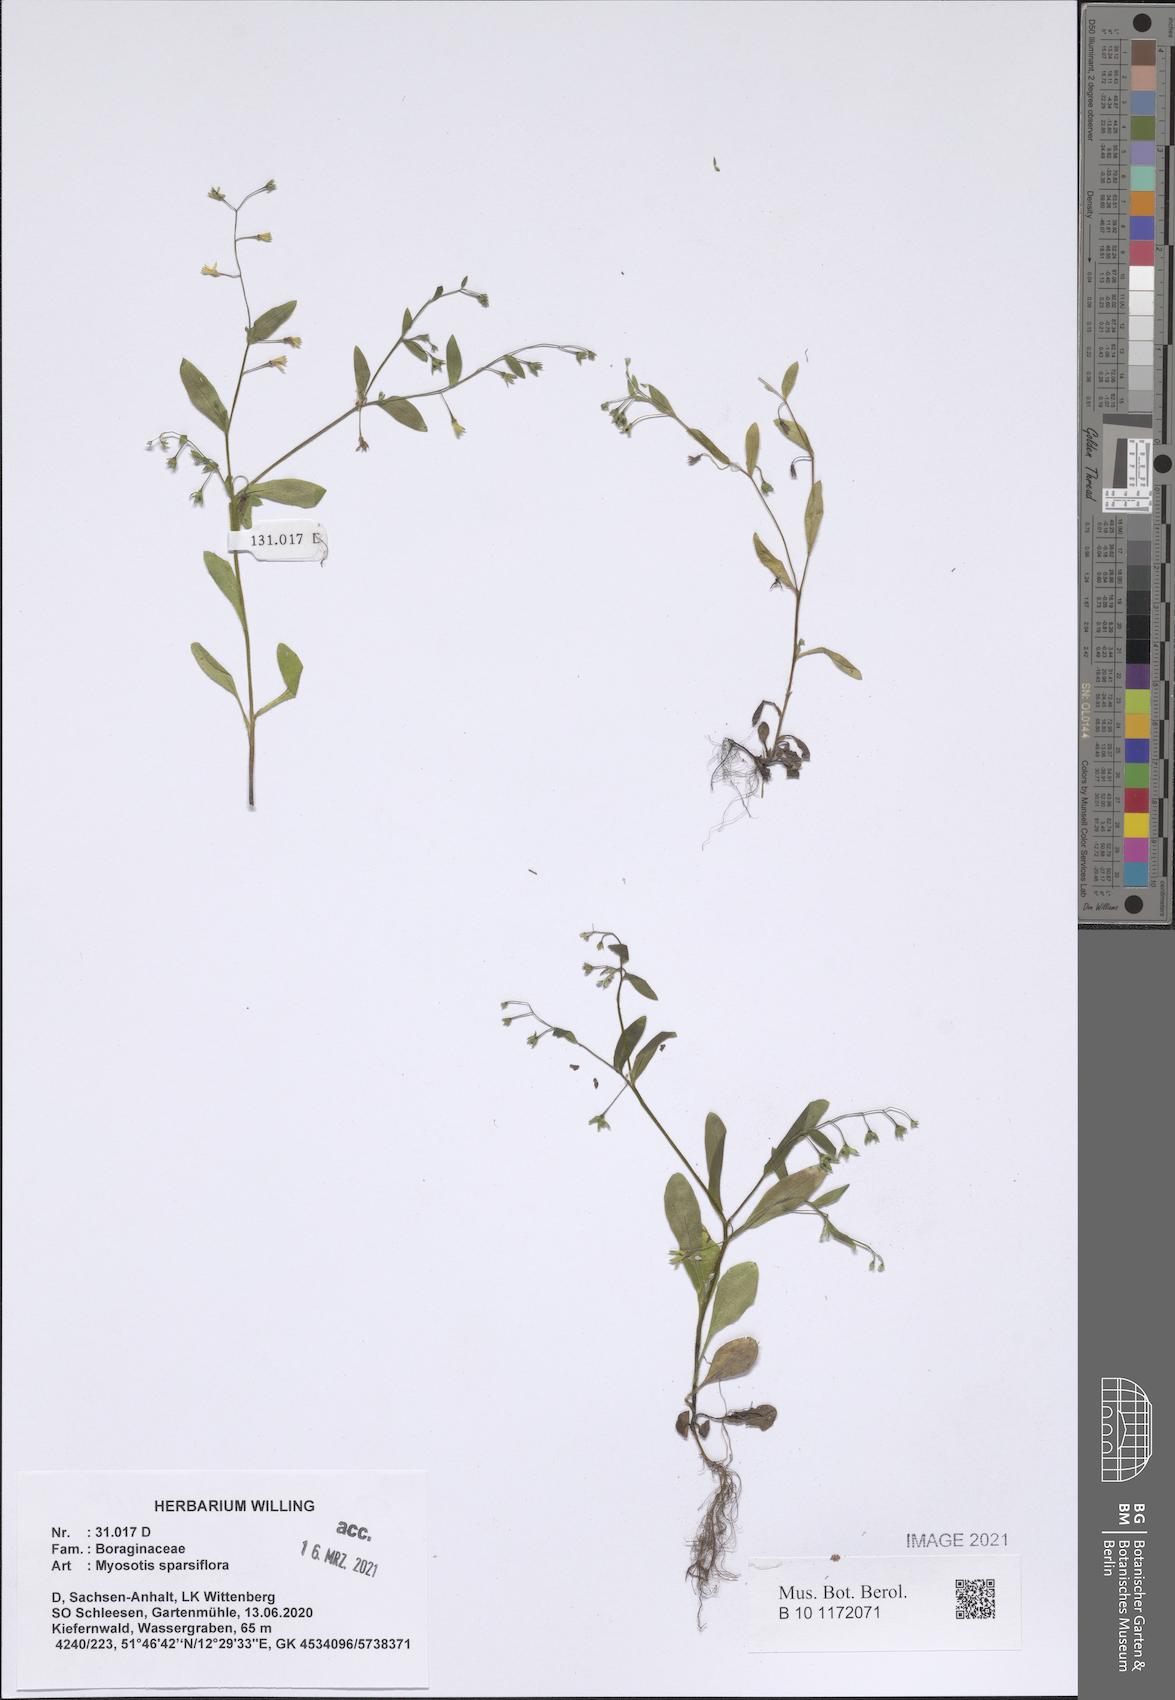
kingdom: Plantae
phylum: Tracheophyta
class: Magnoliopsida
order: Boraginales
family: Boraginaceae
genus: Myosotis
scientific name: Myosotis sparsiflora
